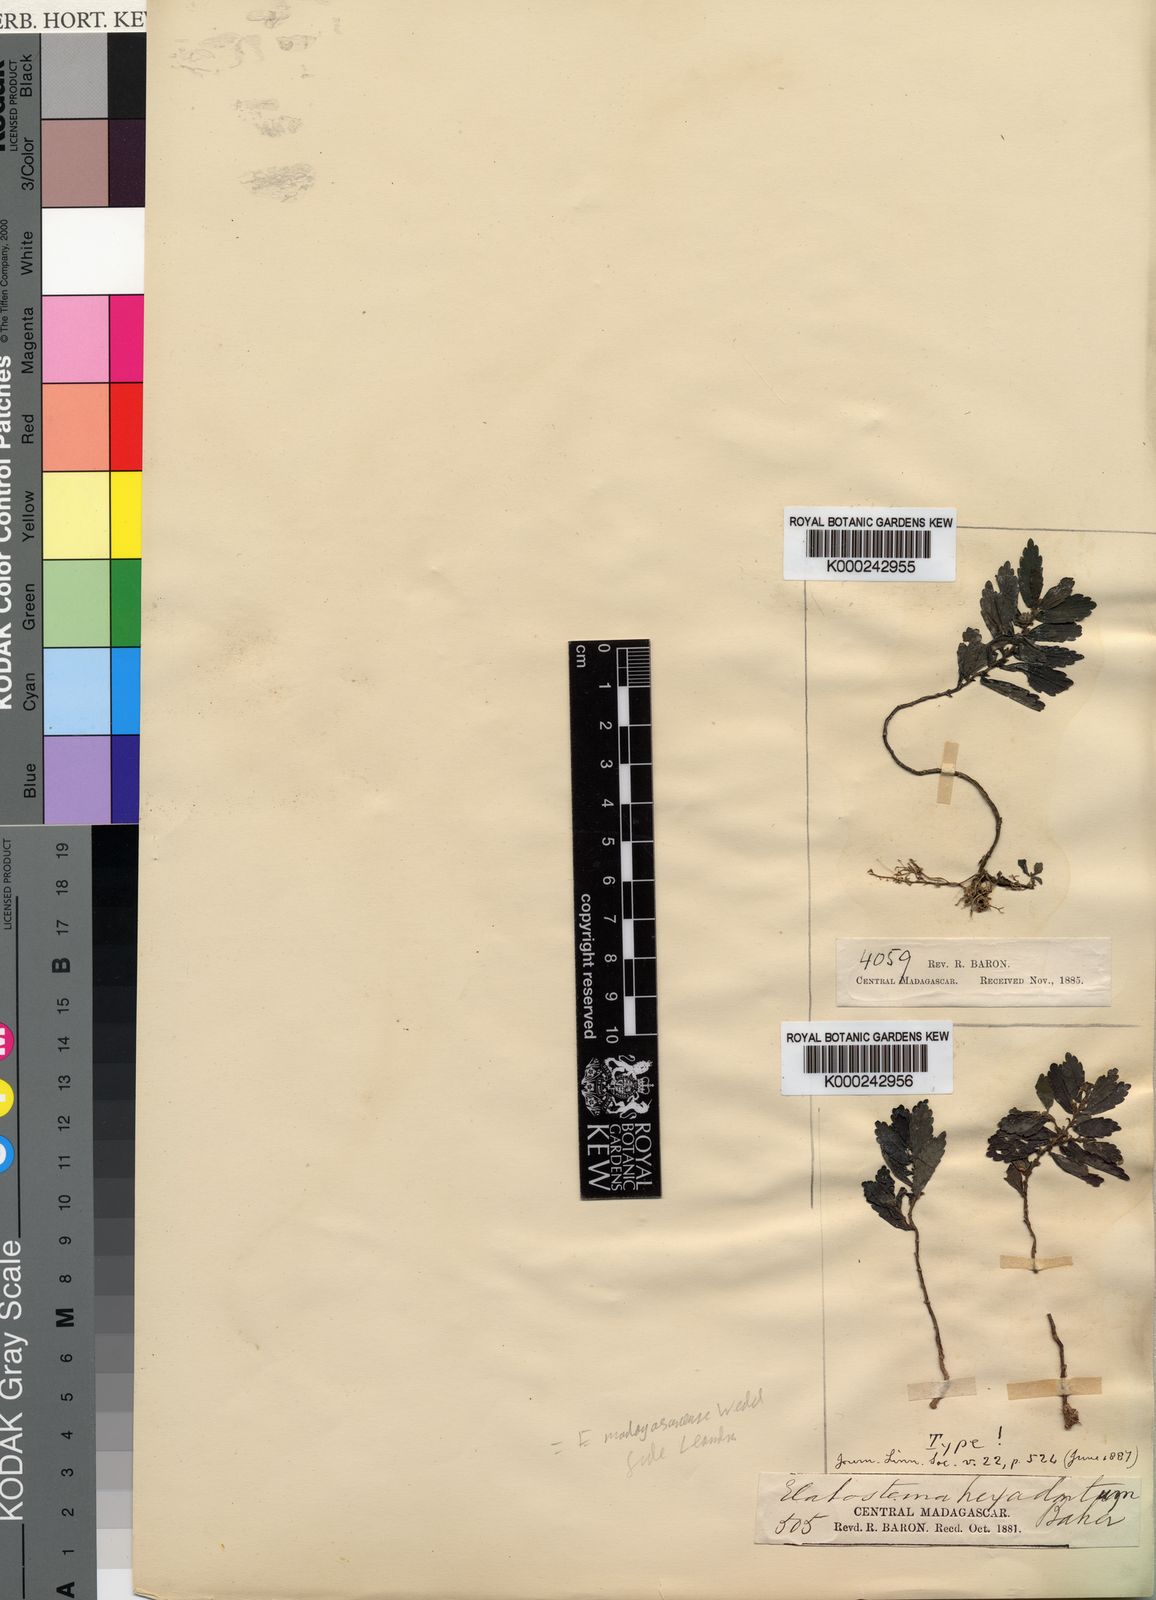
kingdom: Plantae
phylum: Tracheophyta
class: Magnoliopsida
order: Rosales
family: Urticaceae
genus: Elatostema
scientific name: Elatostema madagascariense
